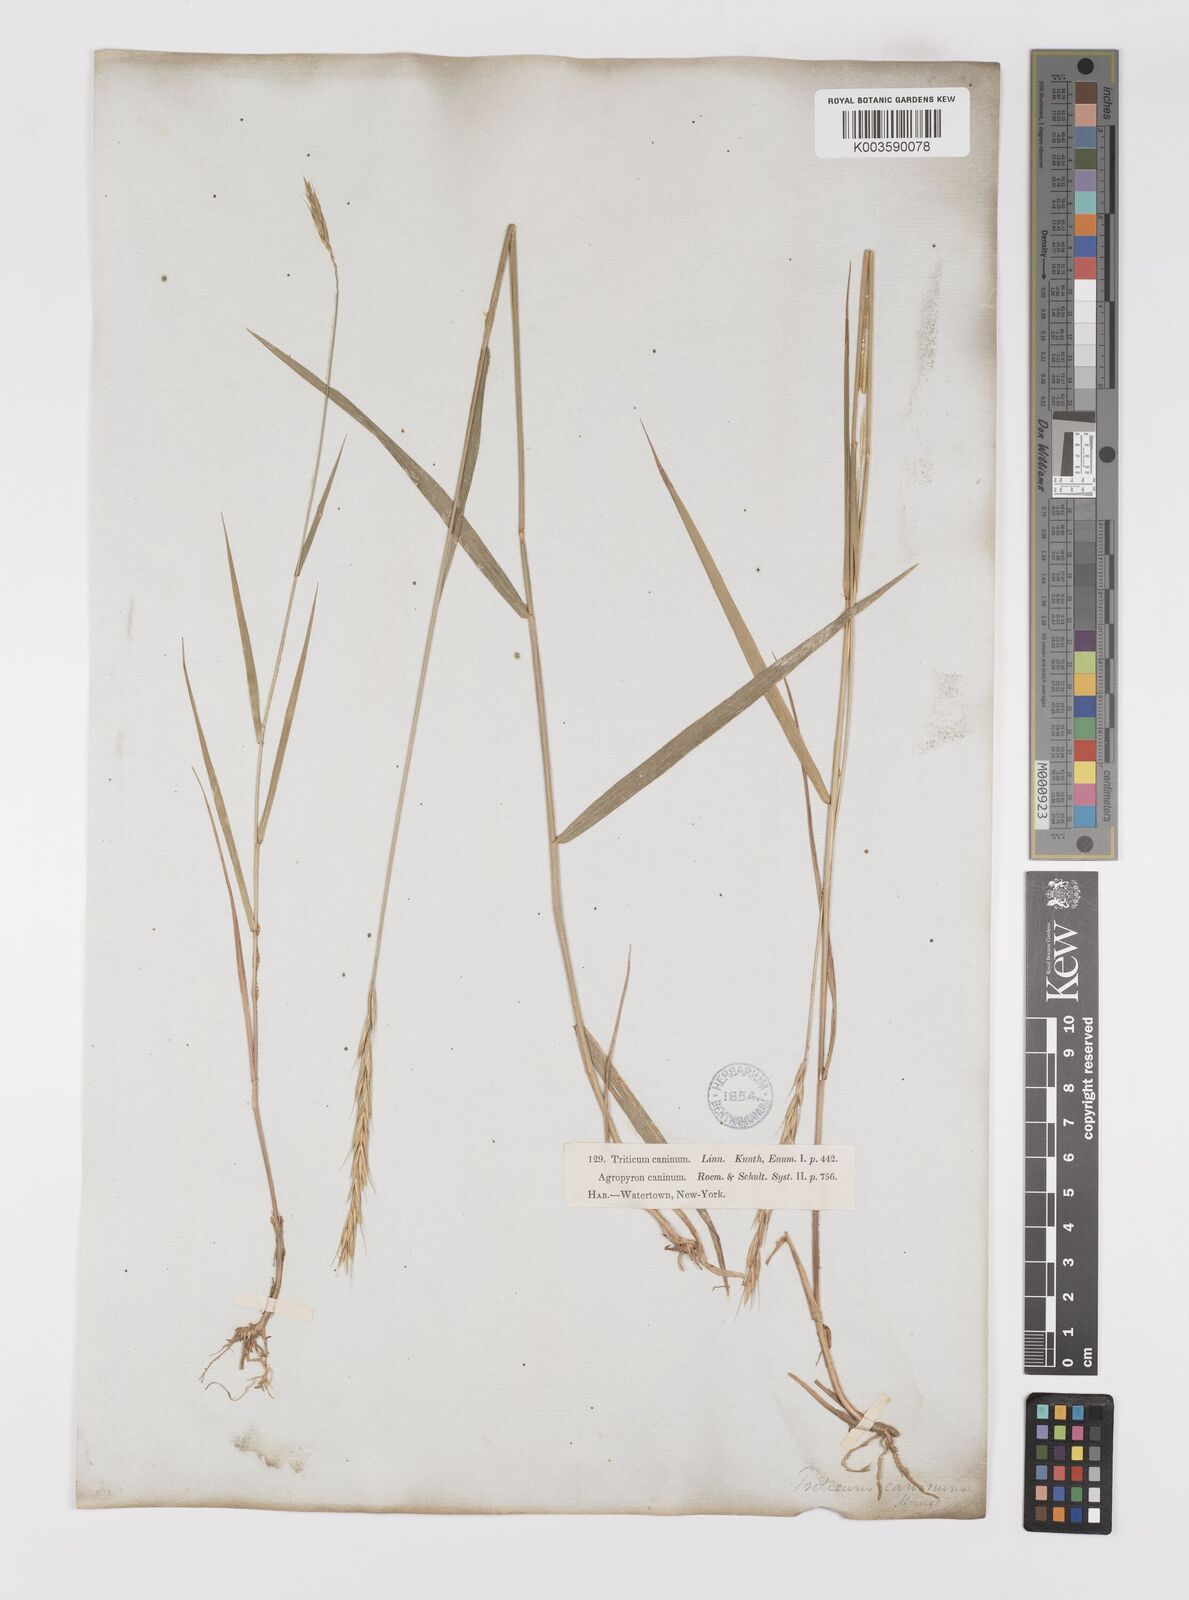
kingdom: Plantae
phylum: Tracheophyta
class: Liliopsida
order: Poales
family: Poaceae
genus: Elymus
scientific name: Elymus repens
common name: Quackgrass
